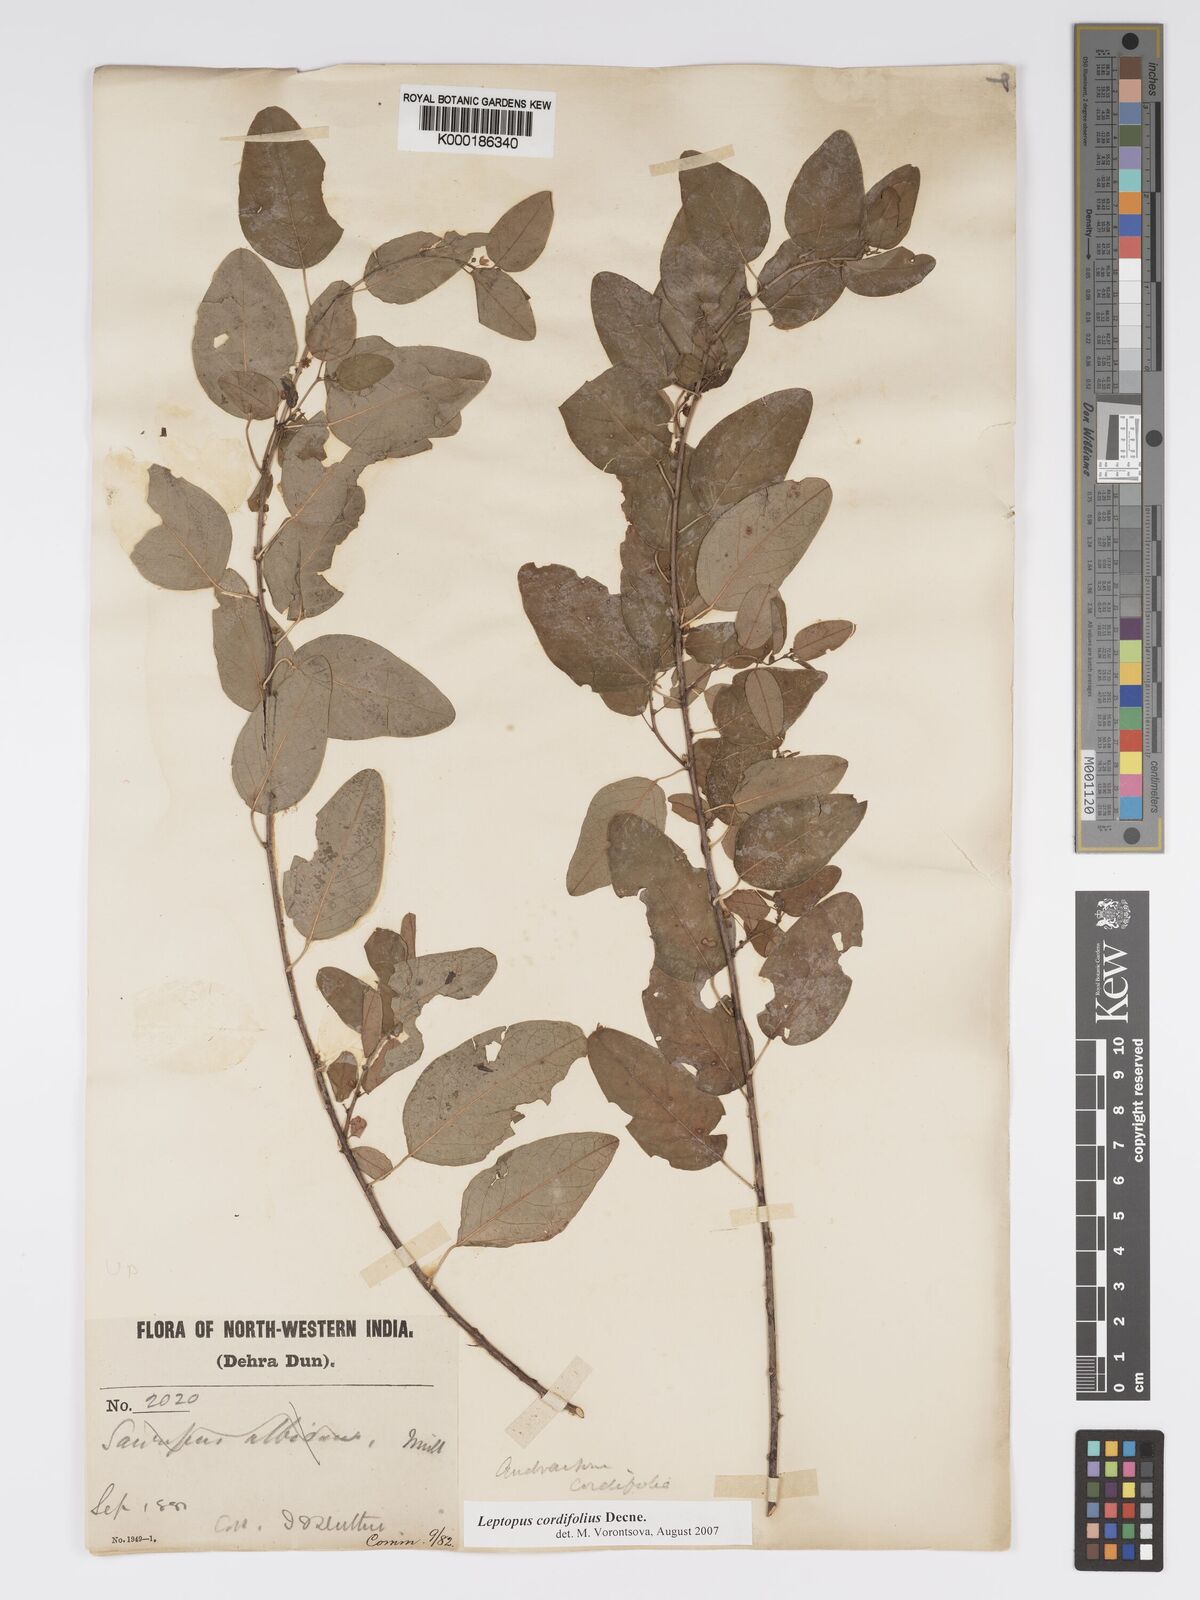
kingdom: Plantae
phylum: Tracheophyta
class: Magnoliopsida
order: Malpighiales
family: Phyllanthaceae
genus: Leptopus
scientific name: Leptopus cordifolius
